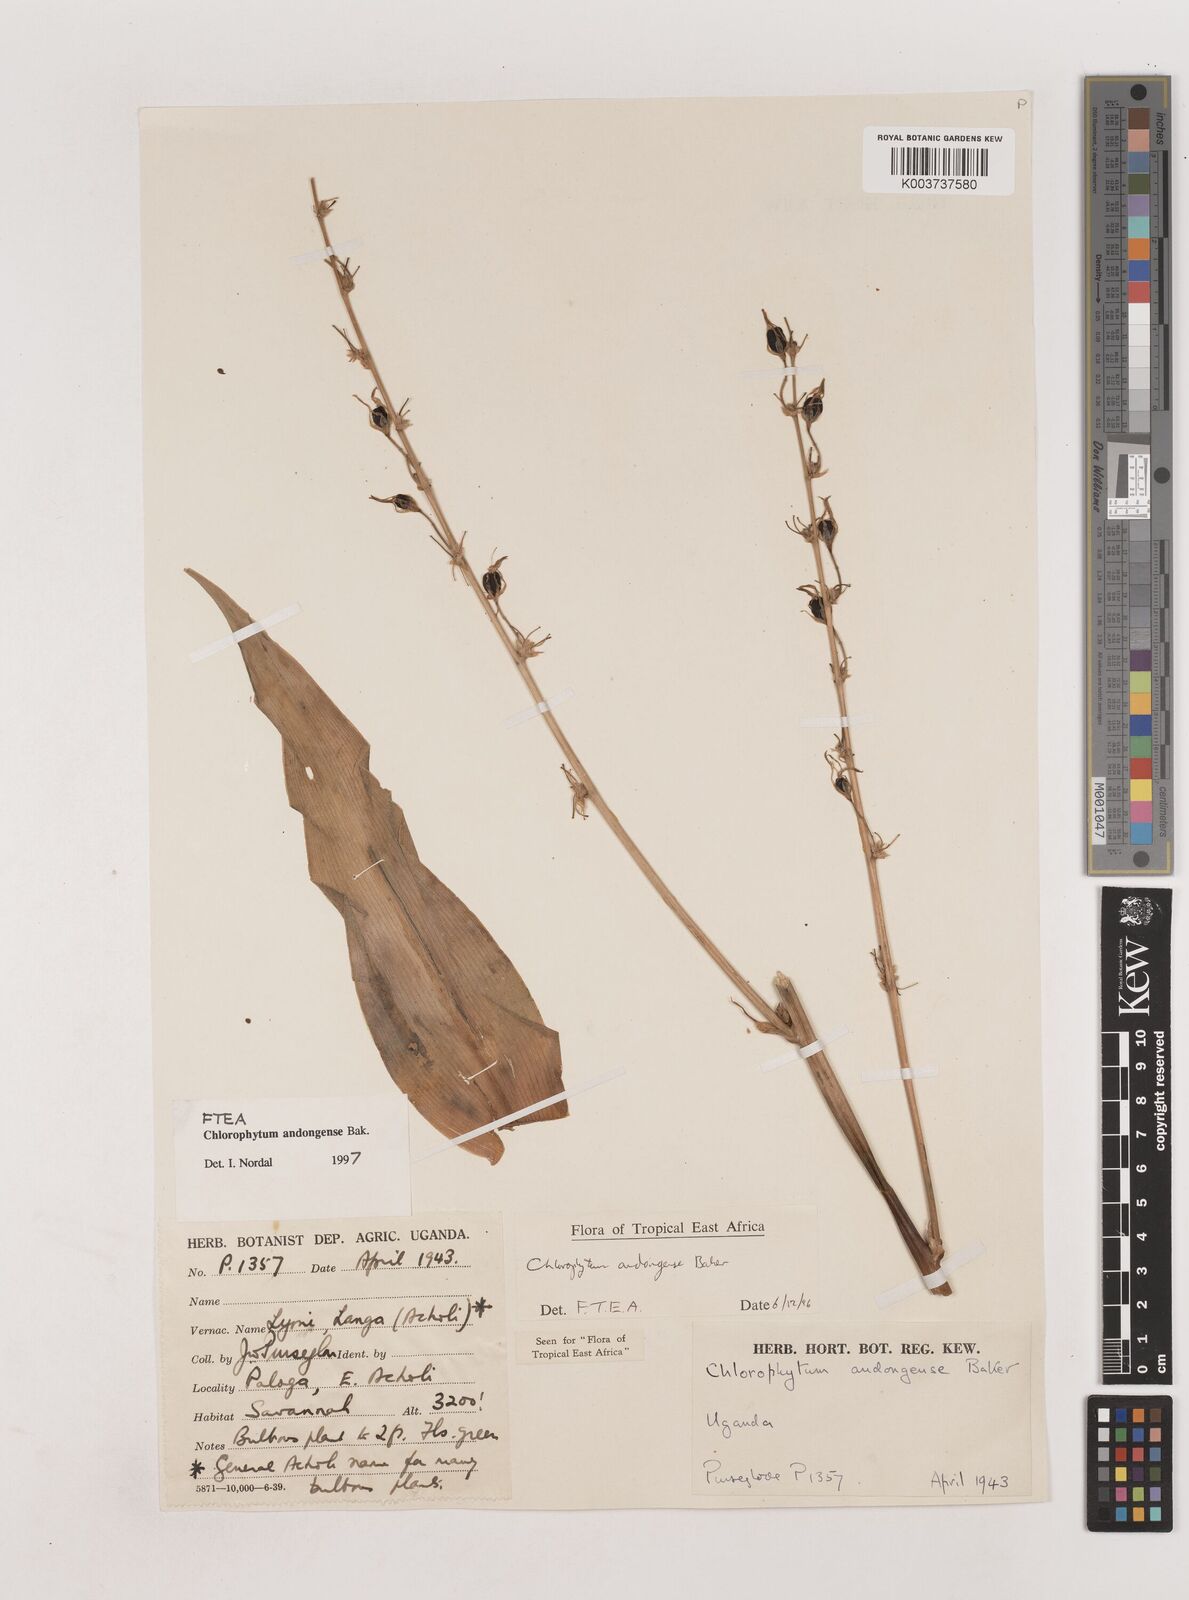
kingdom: Plantae
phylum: Tracheophyta
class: Liliopsida
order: Asparagales
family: Asparagaceae
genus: Chlorophytum
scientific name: Chlorophytum andongense
